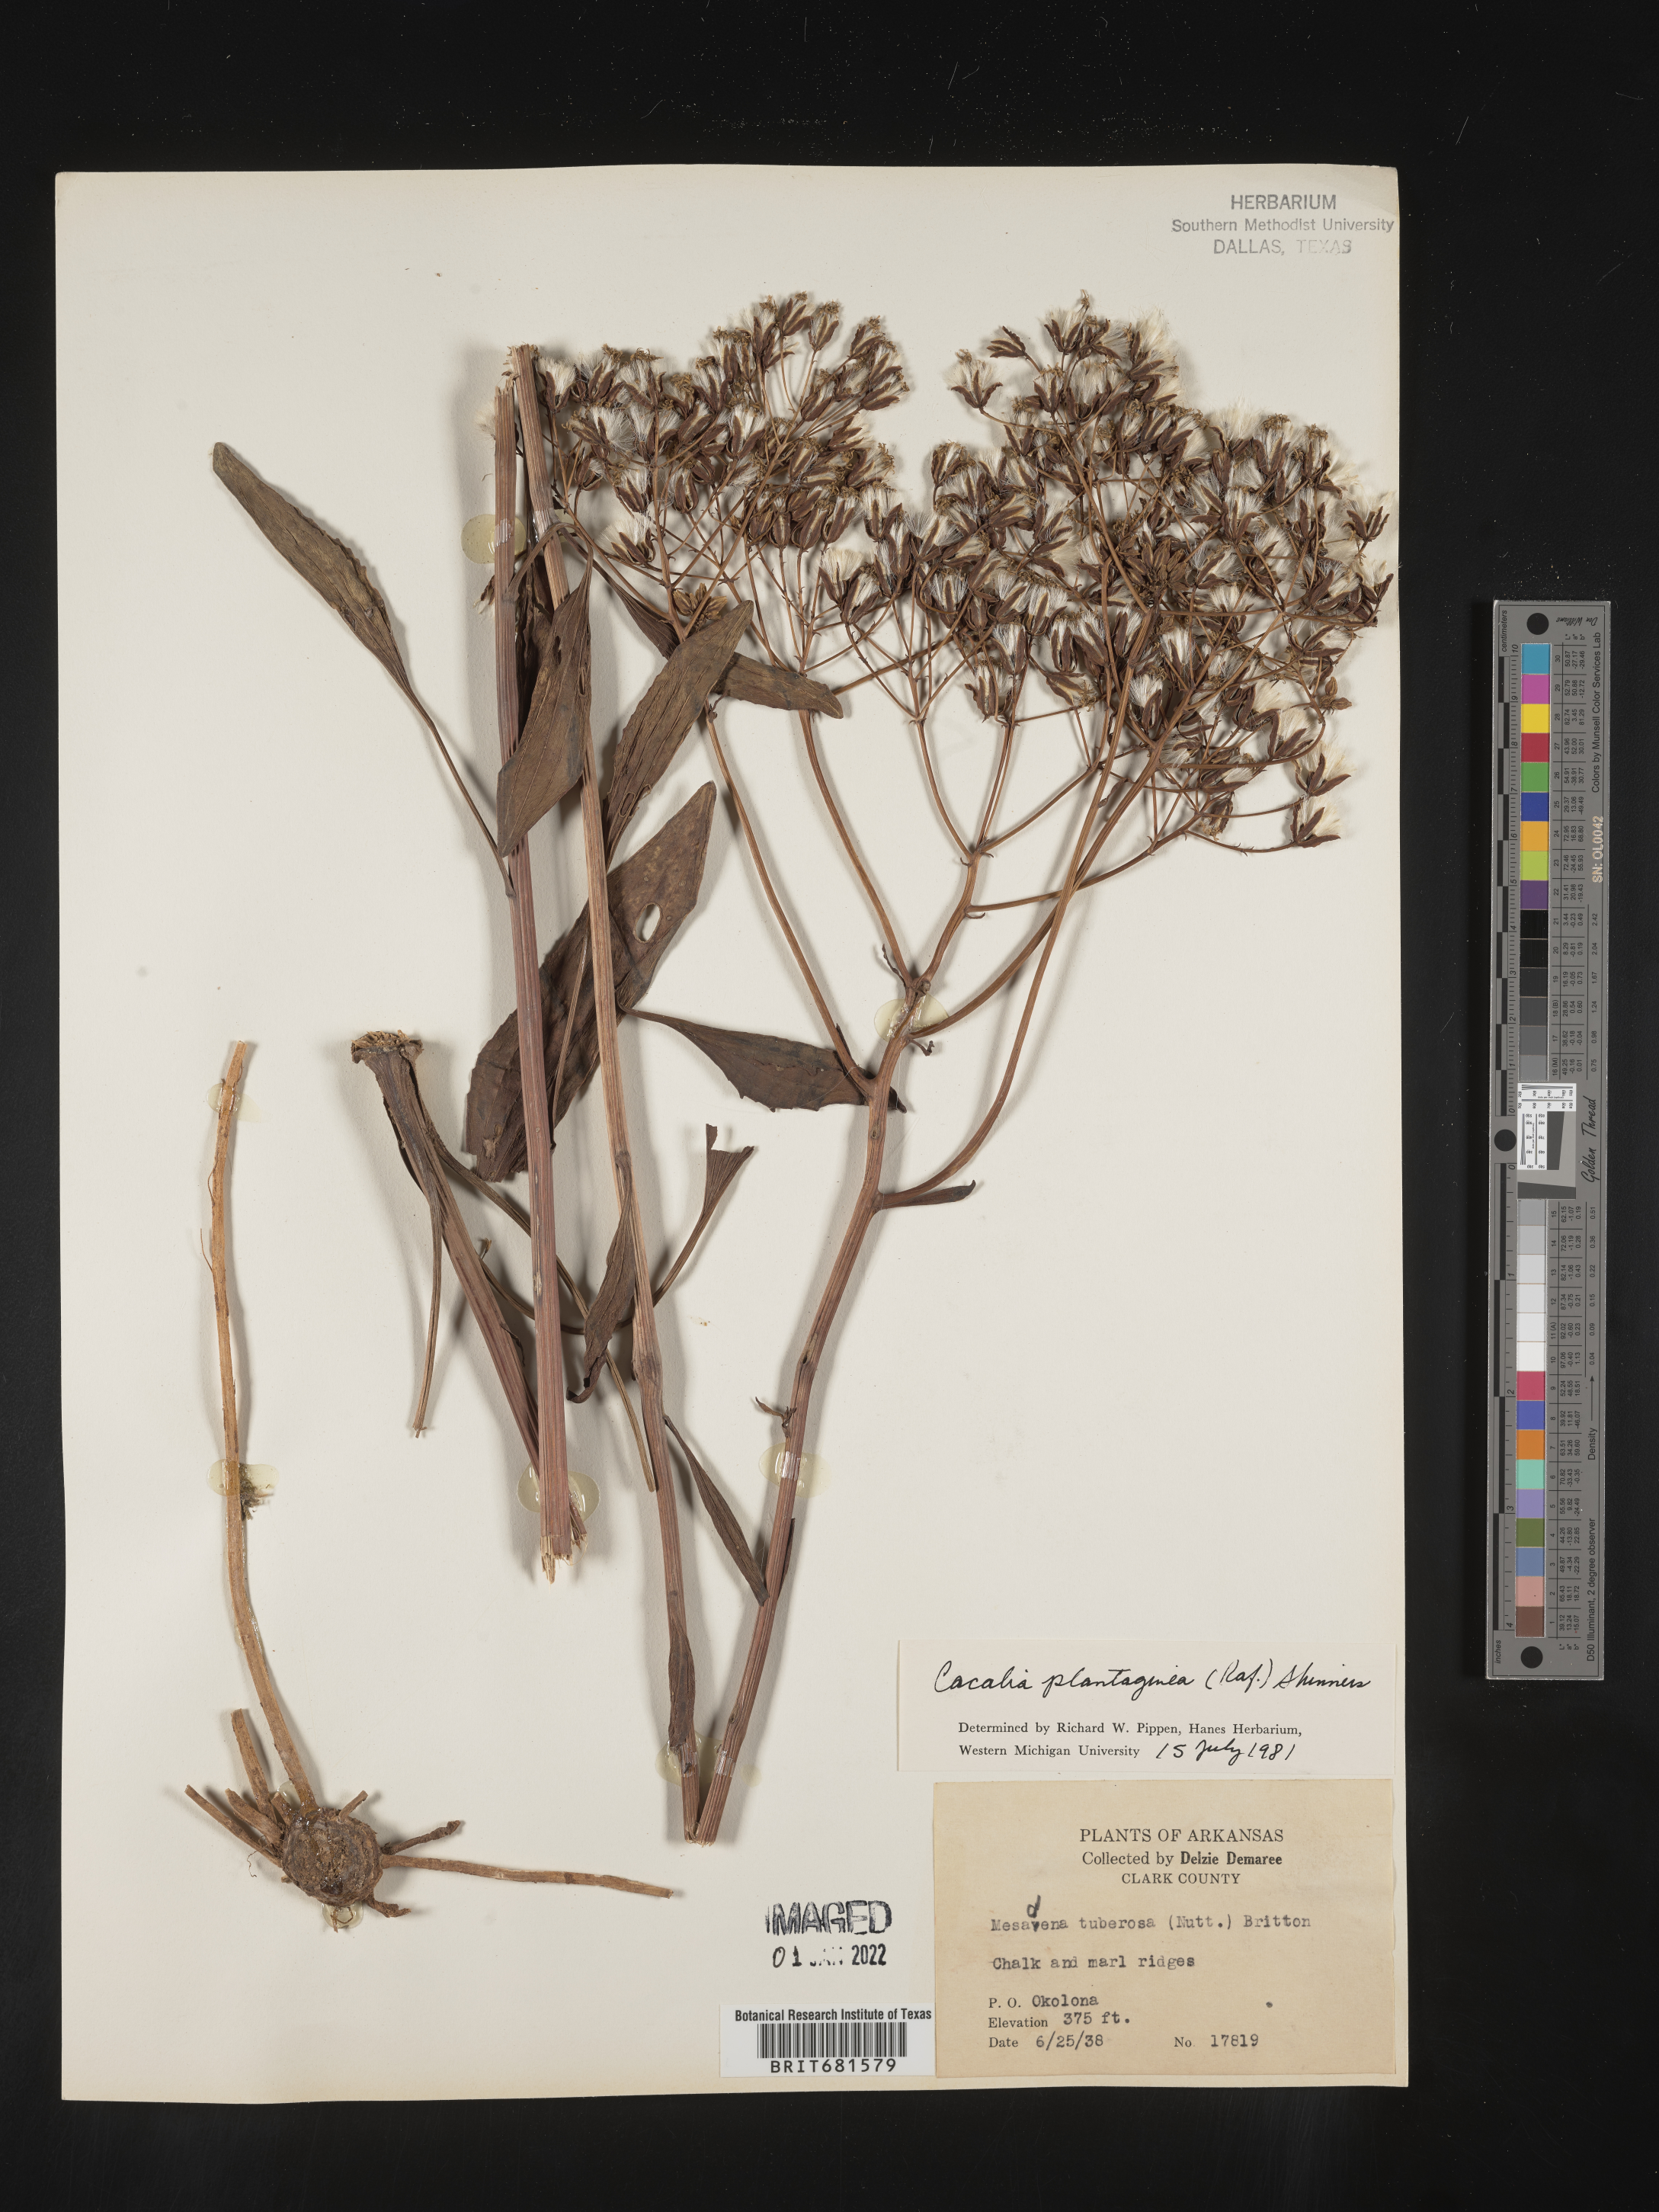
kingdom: Plantae
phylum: Tracheophyta
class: Magnoliopsida
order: Asterales
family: Asteraceae
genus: Arnoglossum
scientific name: Arnoglossum plantagineum
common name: Groove-stemmed indian-plantain
